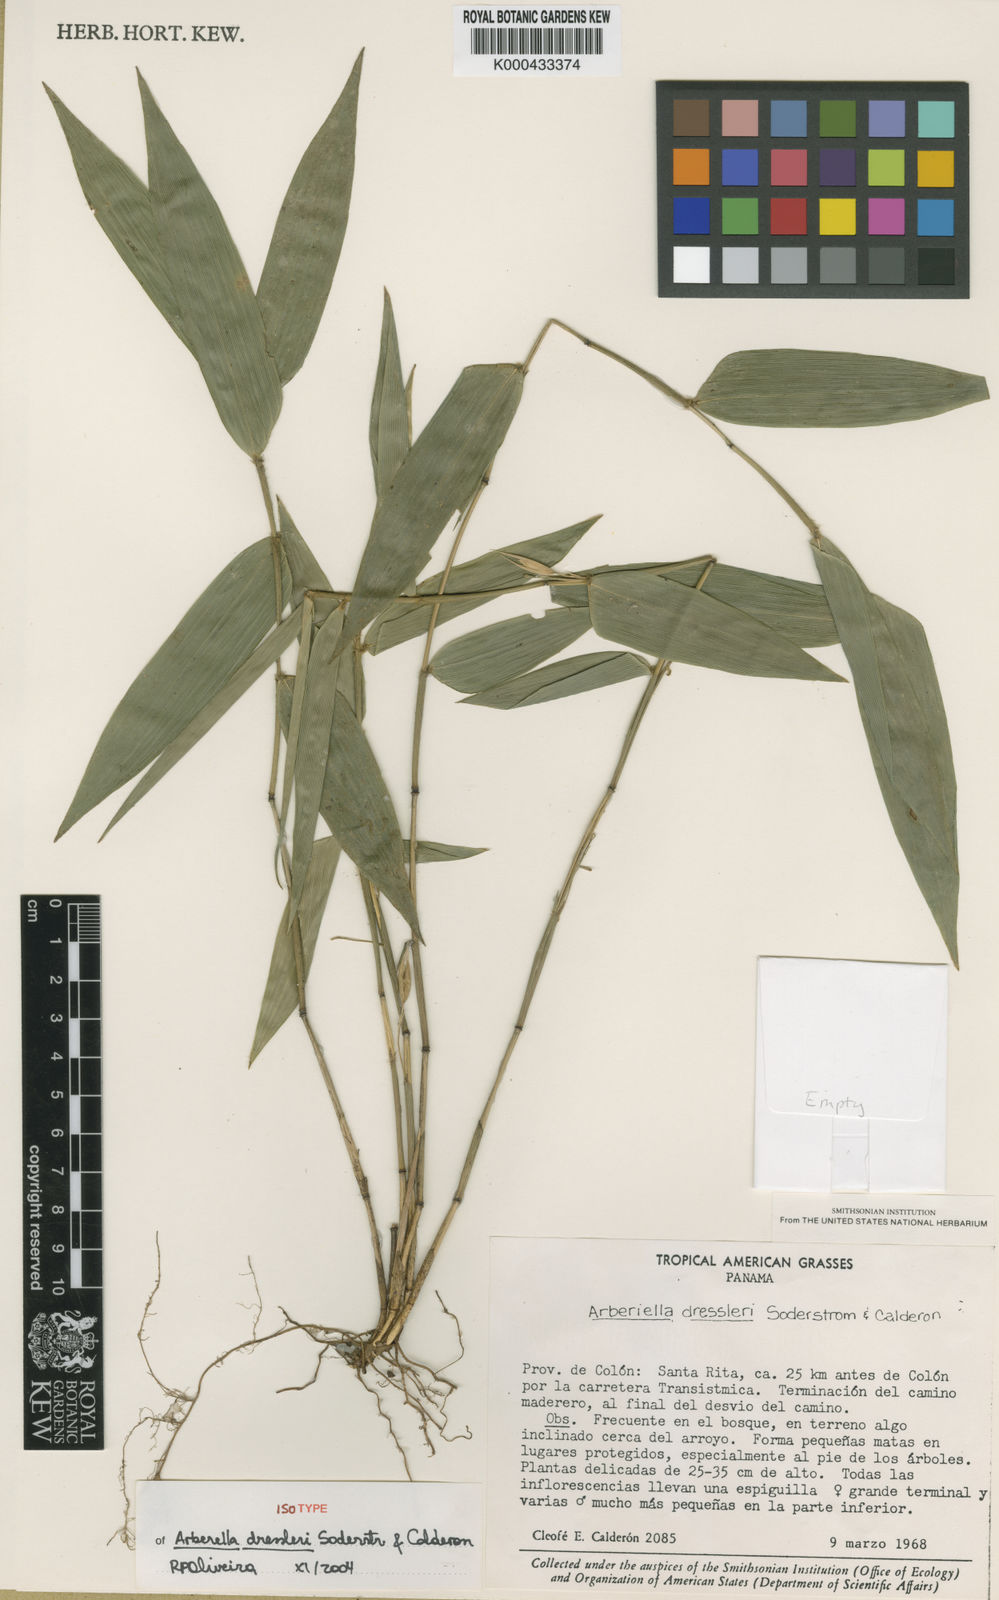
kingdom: Plantae
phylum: Tracheophyta
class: Liliopsida
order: Poales
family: Poaceae
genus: Arberella
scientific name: Arberella dressleri
